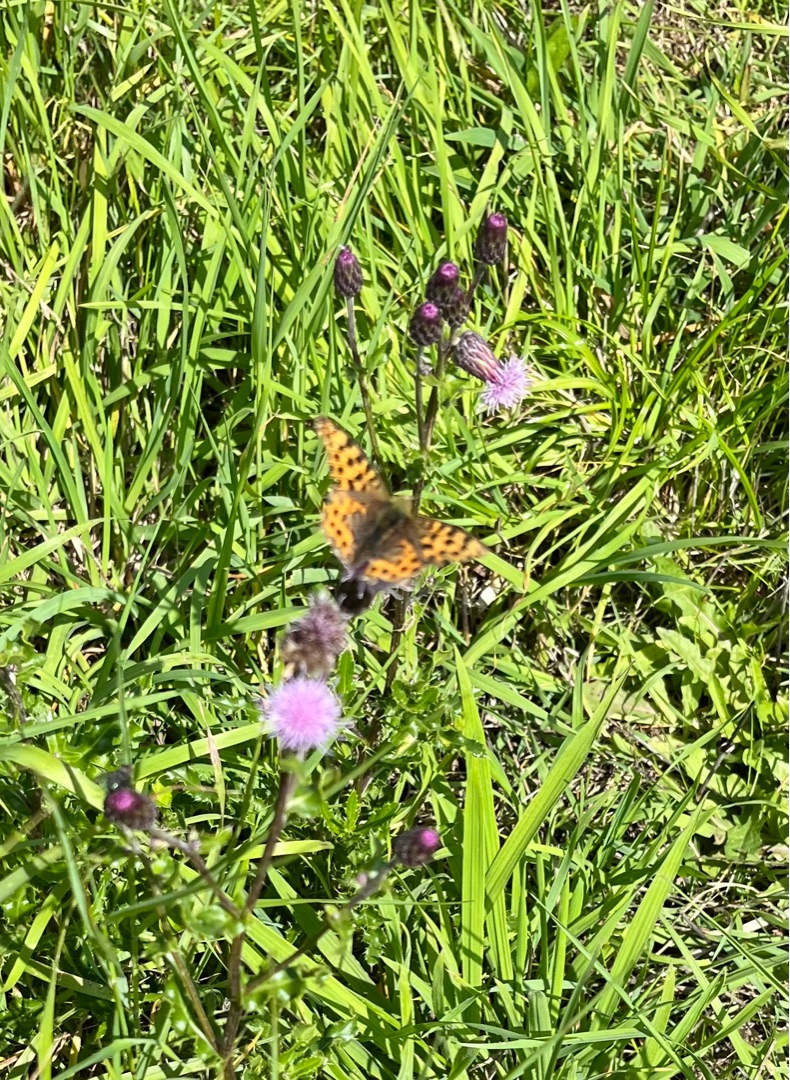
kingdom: Animalia
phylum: Arthropoda
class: Insecta
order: Lepidoptera
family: Nymphalidae
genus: Issoria
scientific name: Issoria lathonia
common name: Storplettet perlemorsommerfugl
